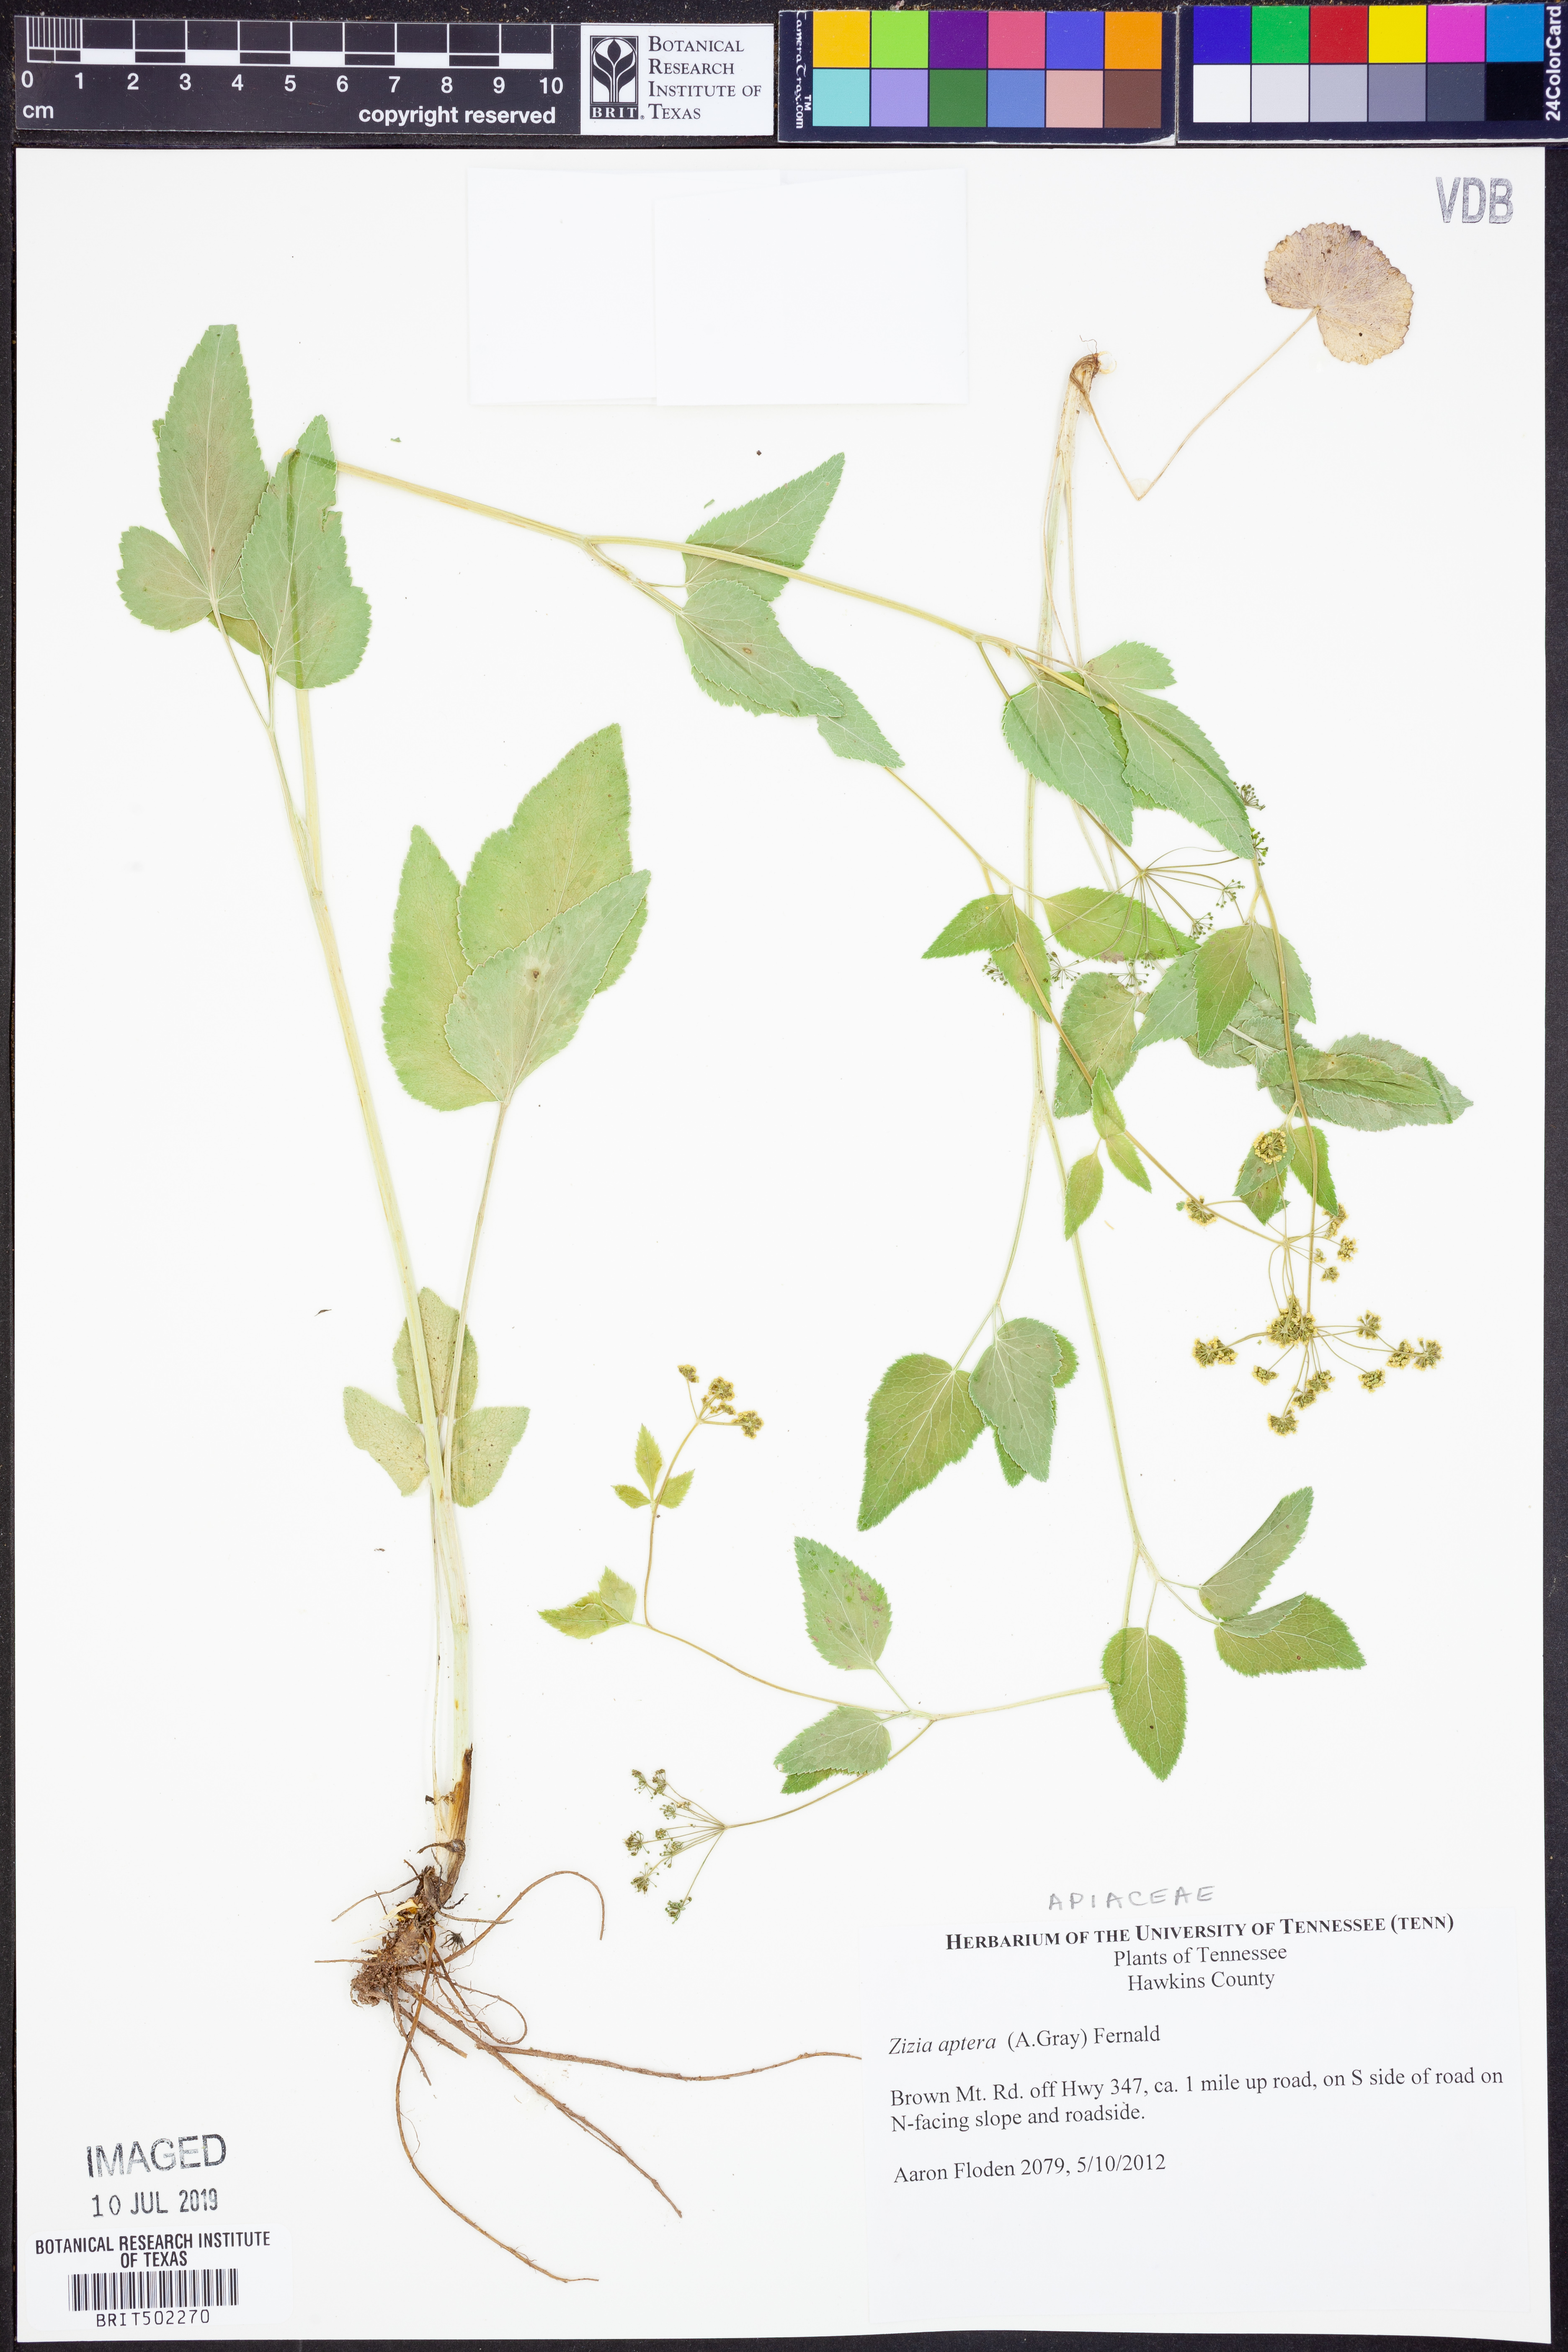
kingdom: Plantae
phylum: Tracheophyta
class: Magnoliopsida
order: Apiales
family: Apiaceae
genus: Zizia
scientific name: Zizia aptera
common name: Heart-leaved alexanders
